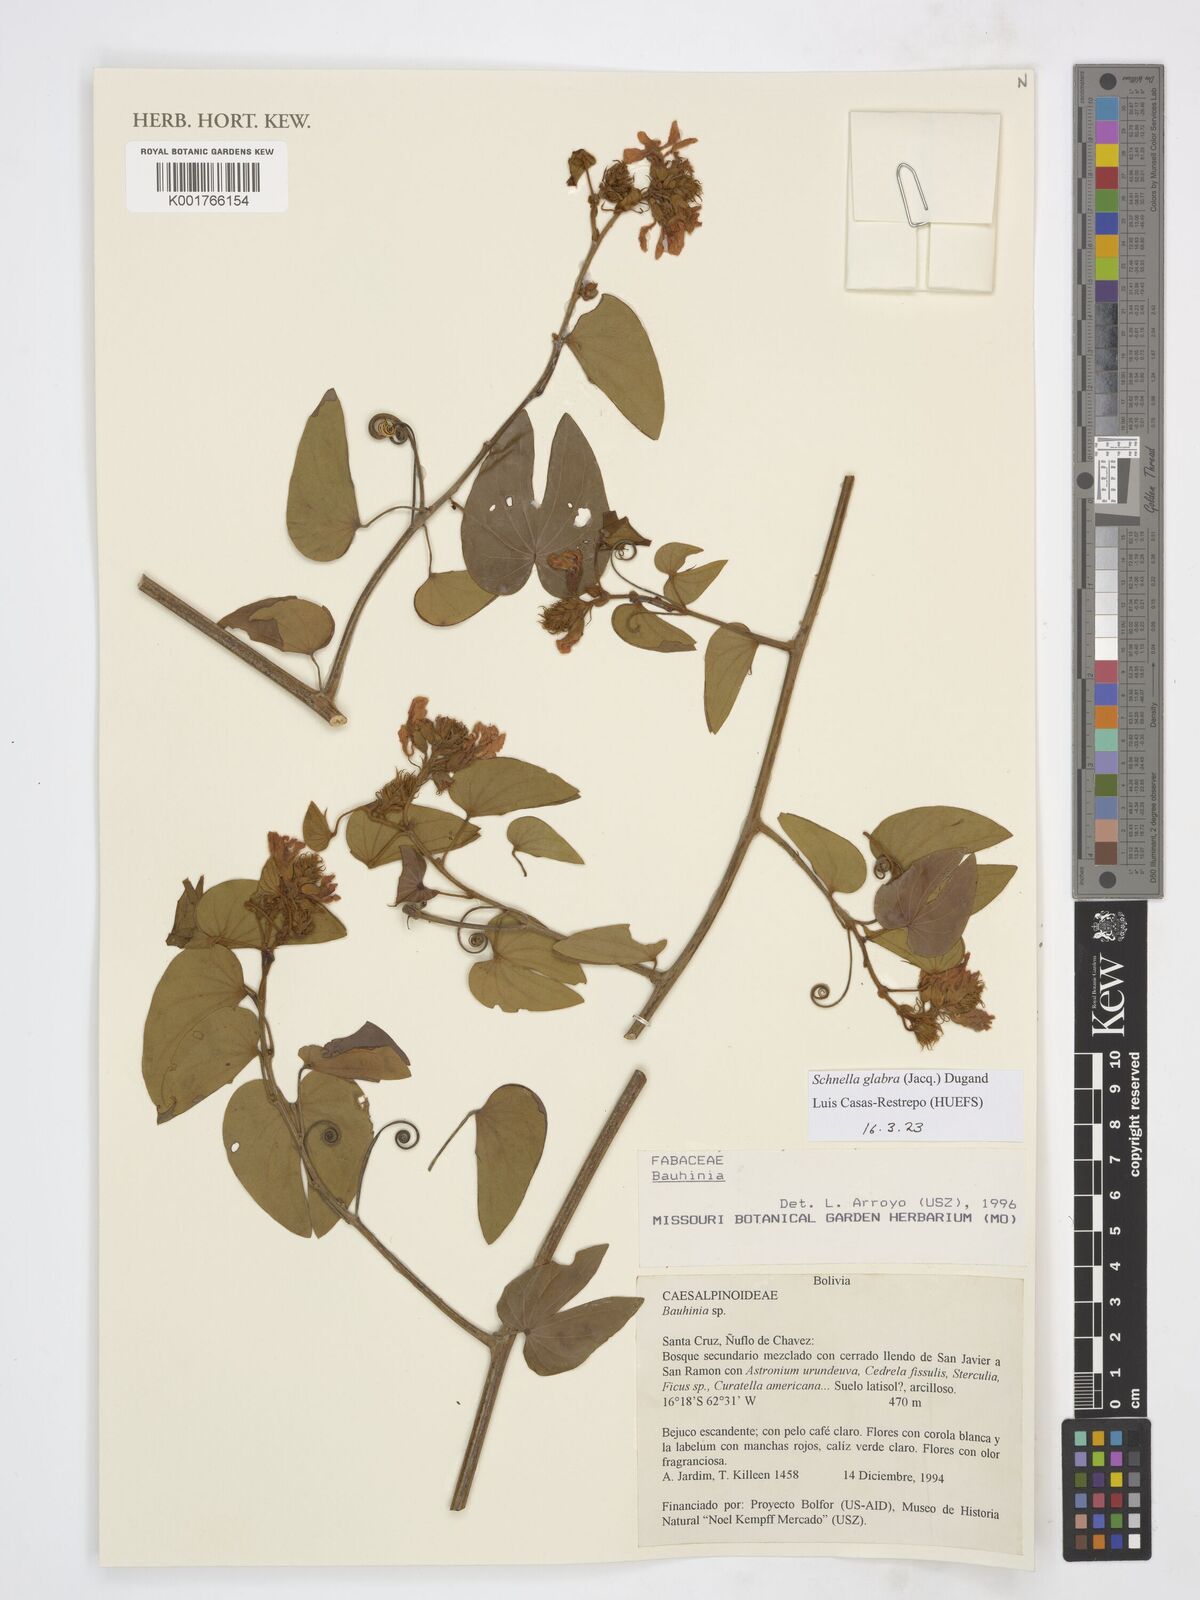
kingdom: Plantae
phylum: Tracheophyta
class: Magnoliopsida
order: Fabales
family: Fabaceae
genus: Schnella
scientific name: Schnella glabra
